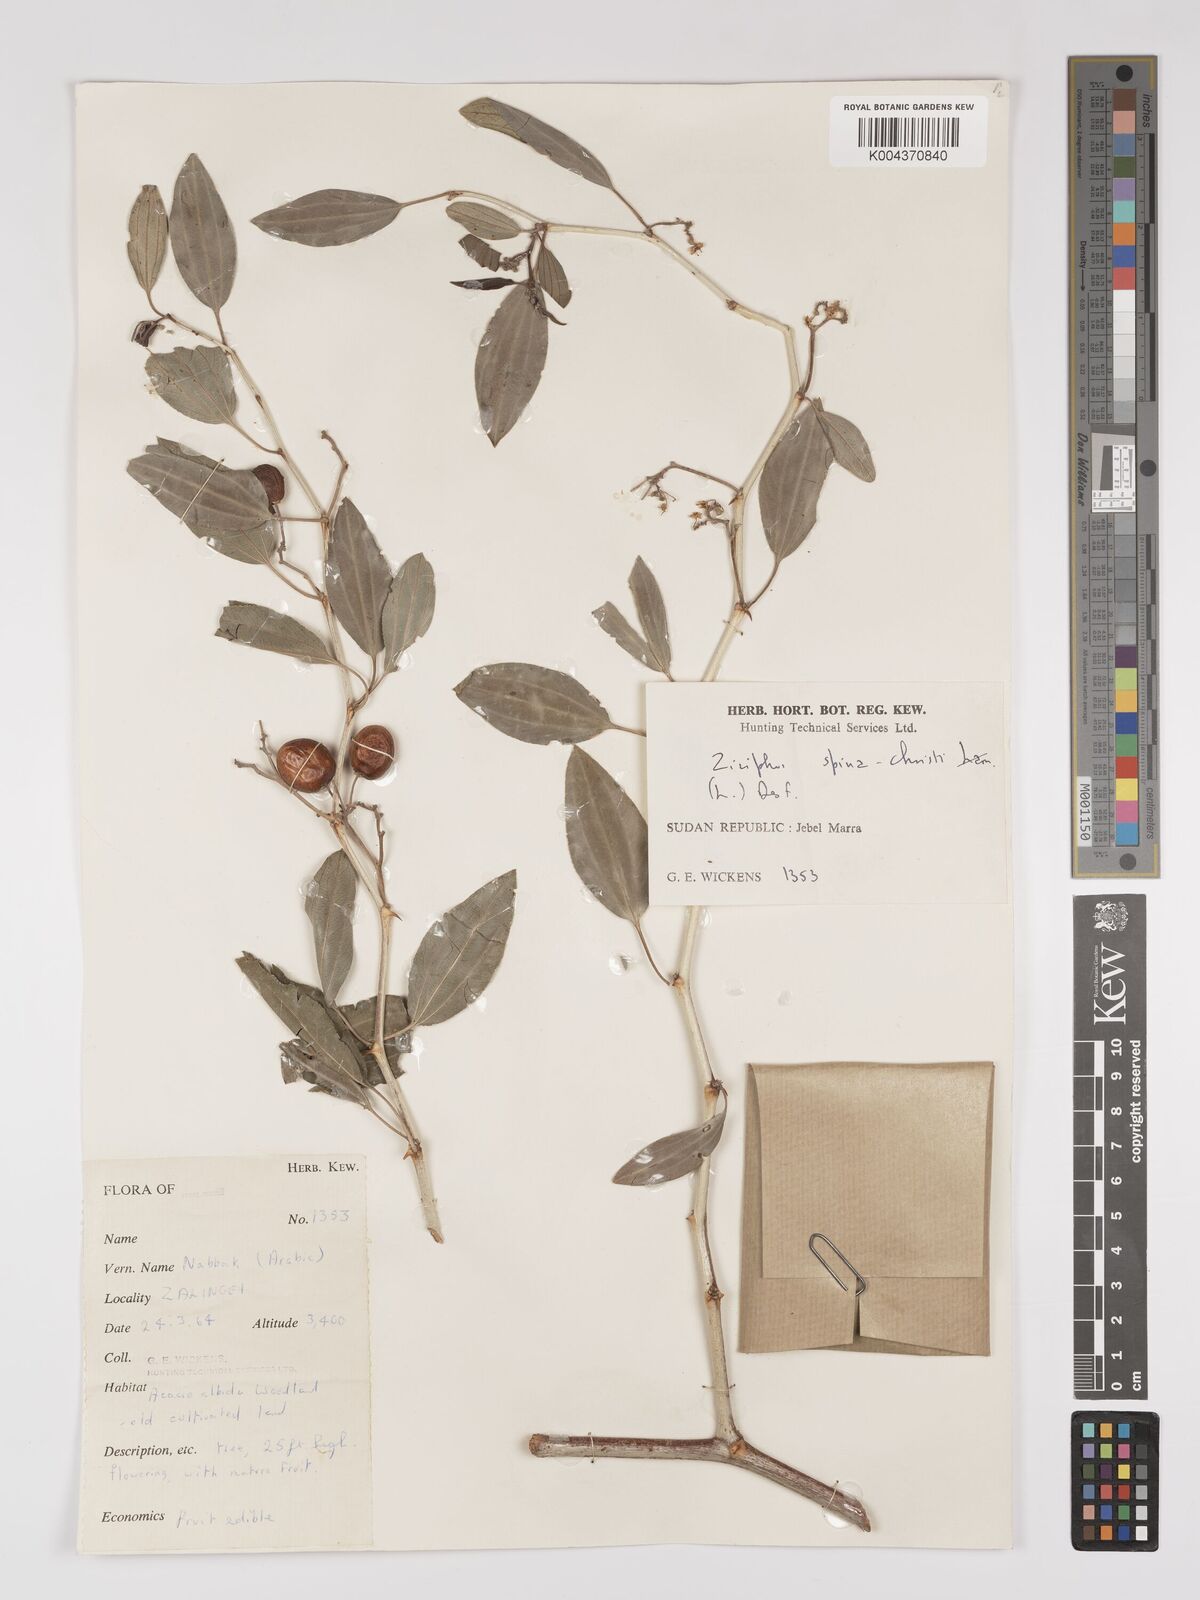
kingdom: Plantae
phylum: Tracheophyta
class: Magnoliopsida
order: Rosales
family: Rhamnaceae
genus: Ziziphus
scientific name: Ziziphus spina-christi
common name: Syrian christ-thorn
